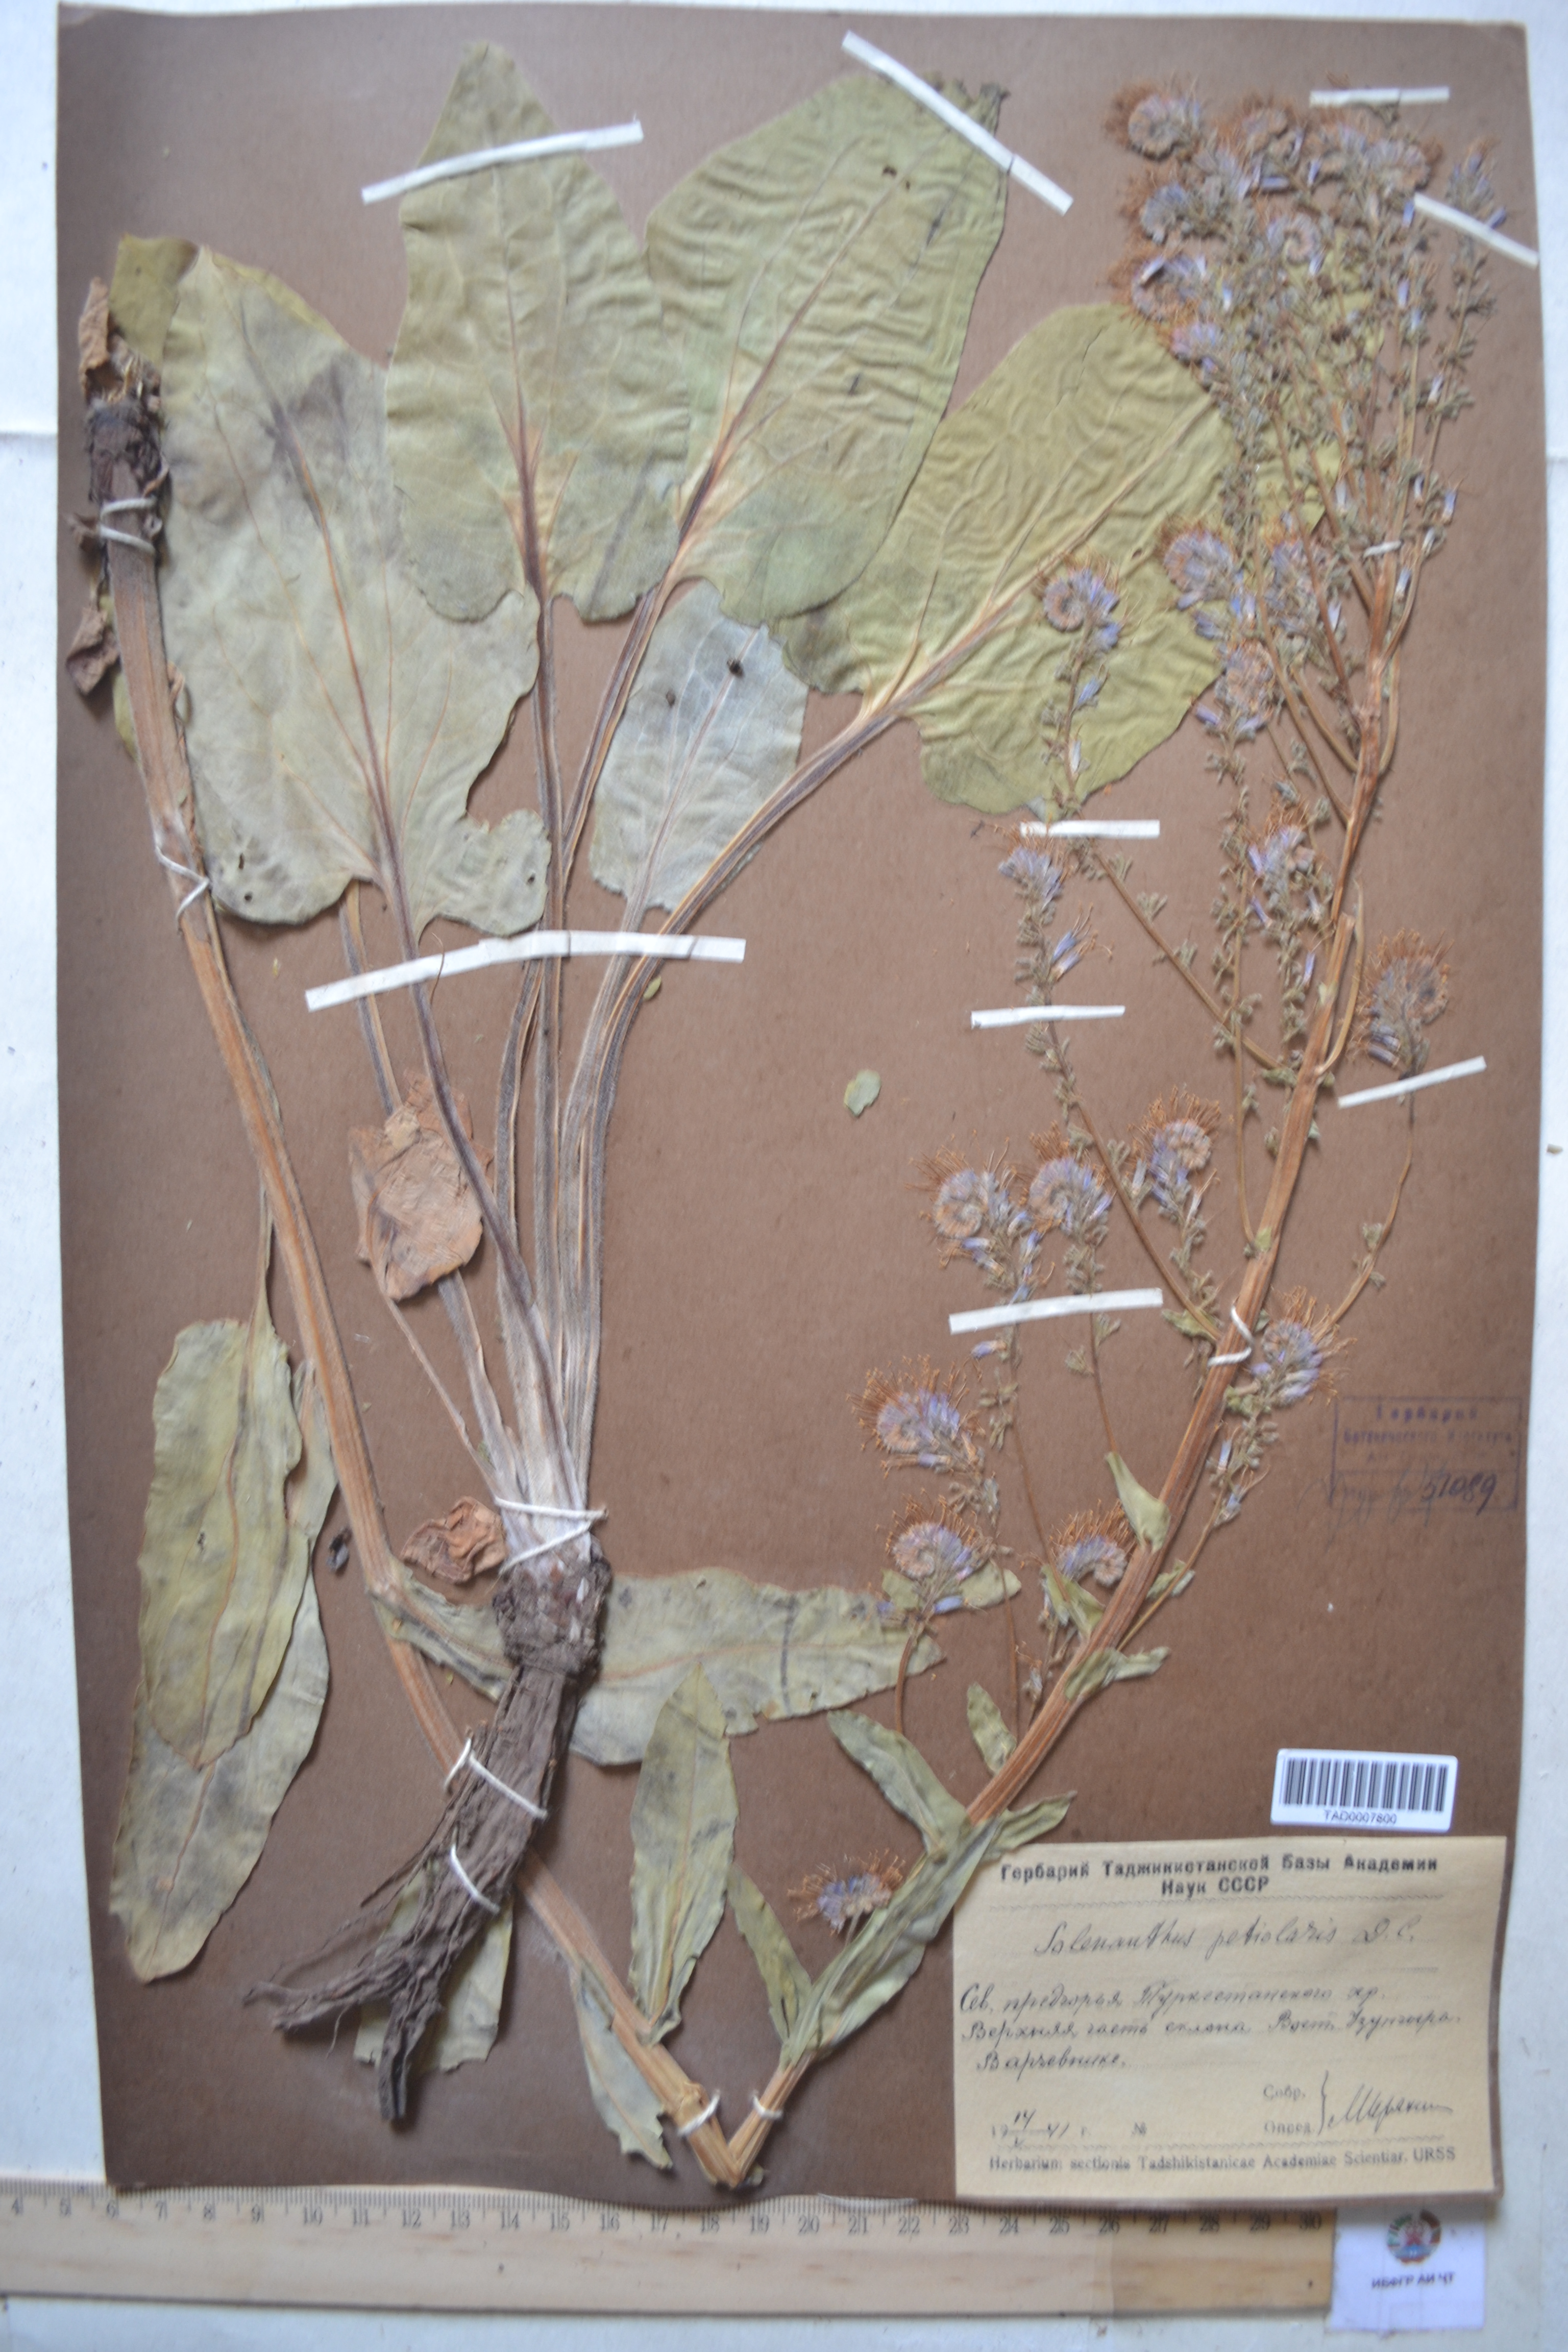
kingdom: Plantae
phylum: Tracheophyta
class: Magnoliopsida
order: Boraginales
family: Boraginaceae
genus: Solenanthus
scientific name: Solenanthus circinnatus
